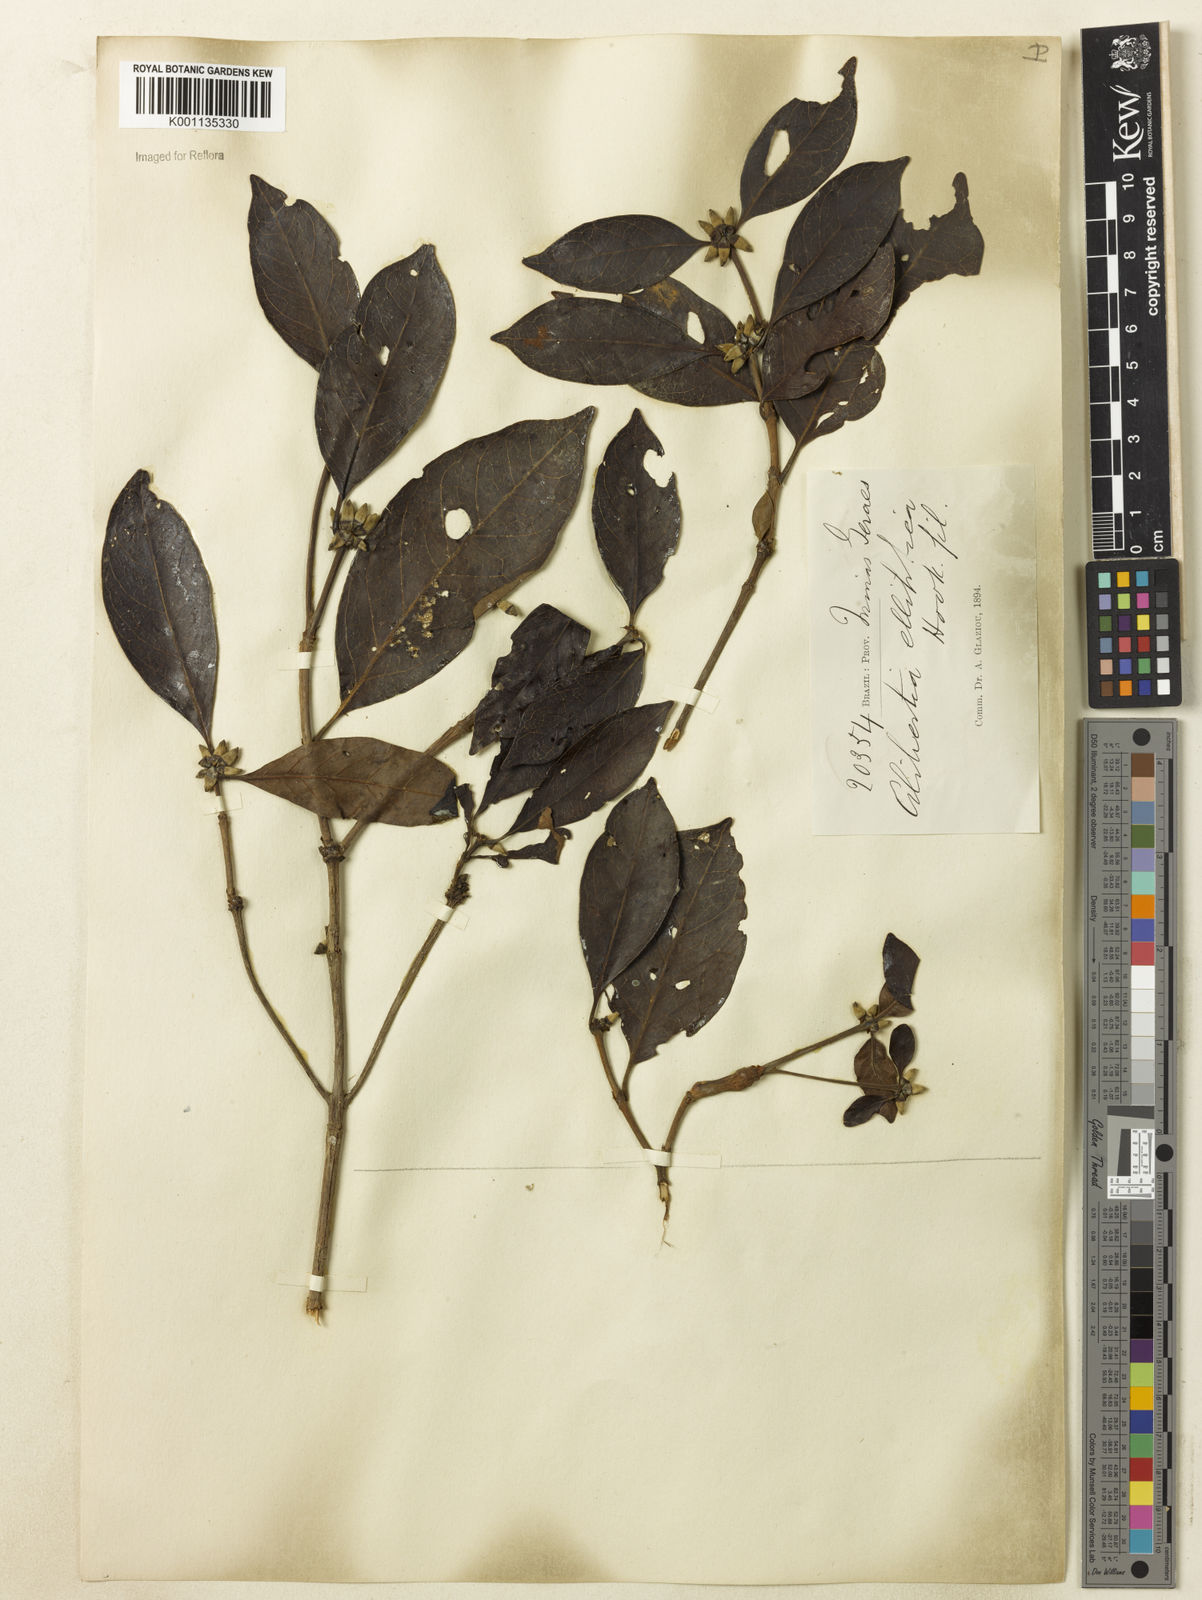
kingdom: Plantae
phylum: Tracheophyta
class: Magnoliopsida
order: Gentianales
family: Rubiaceae
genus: Cordiera
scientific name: Cordiera elliptica
